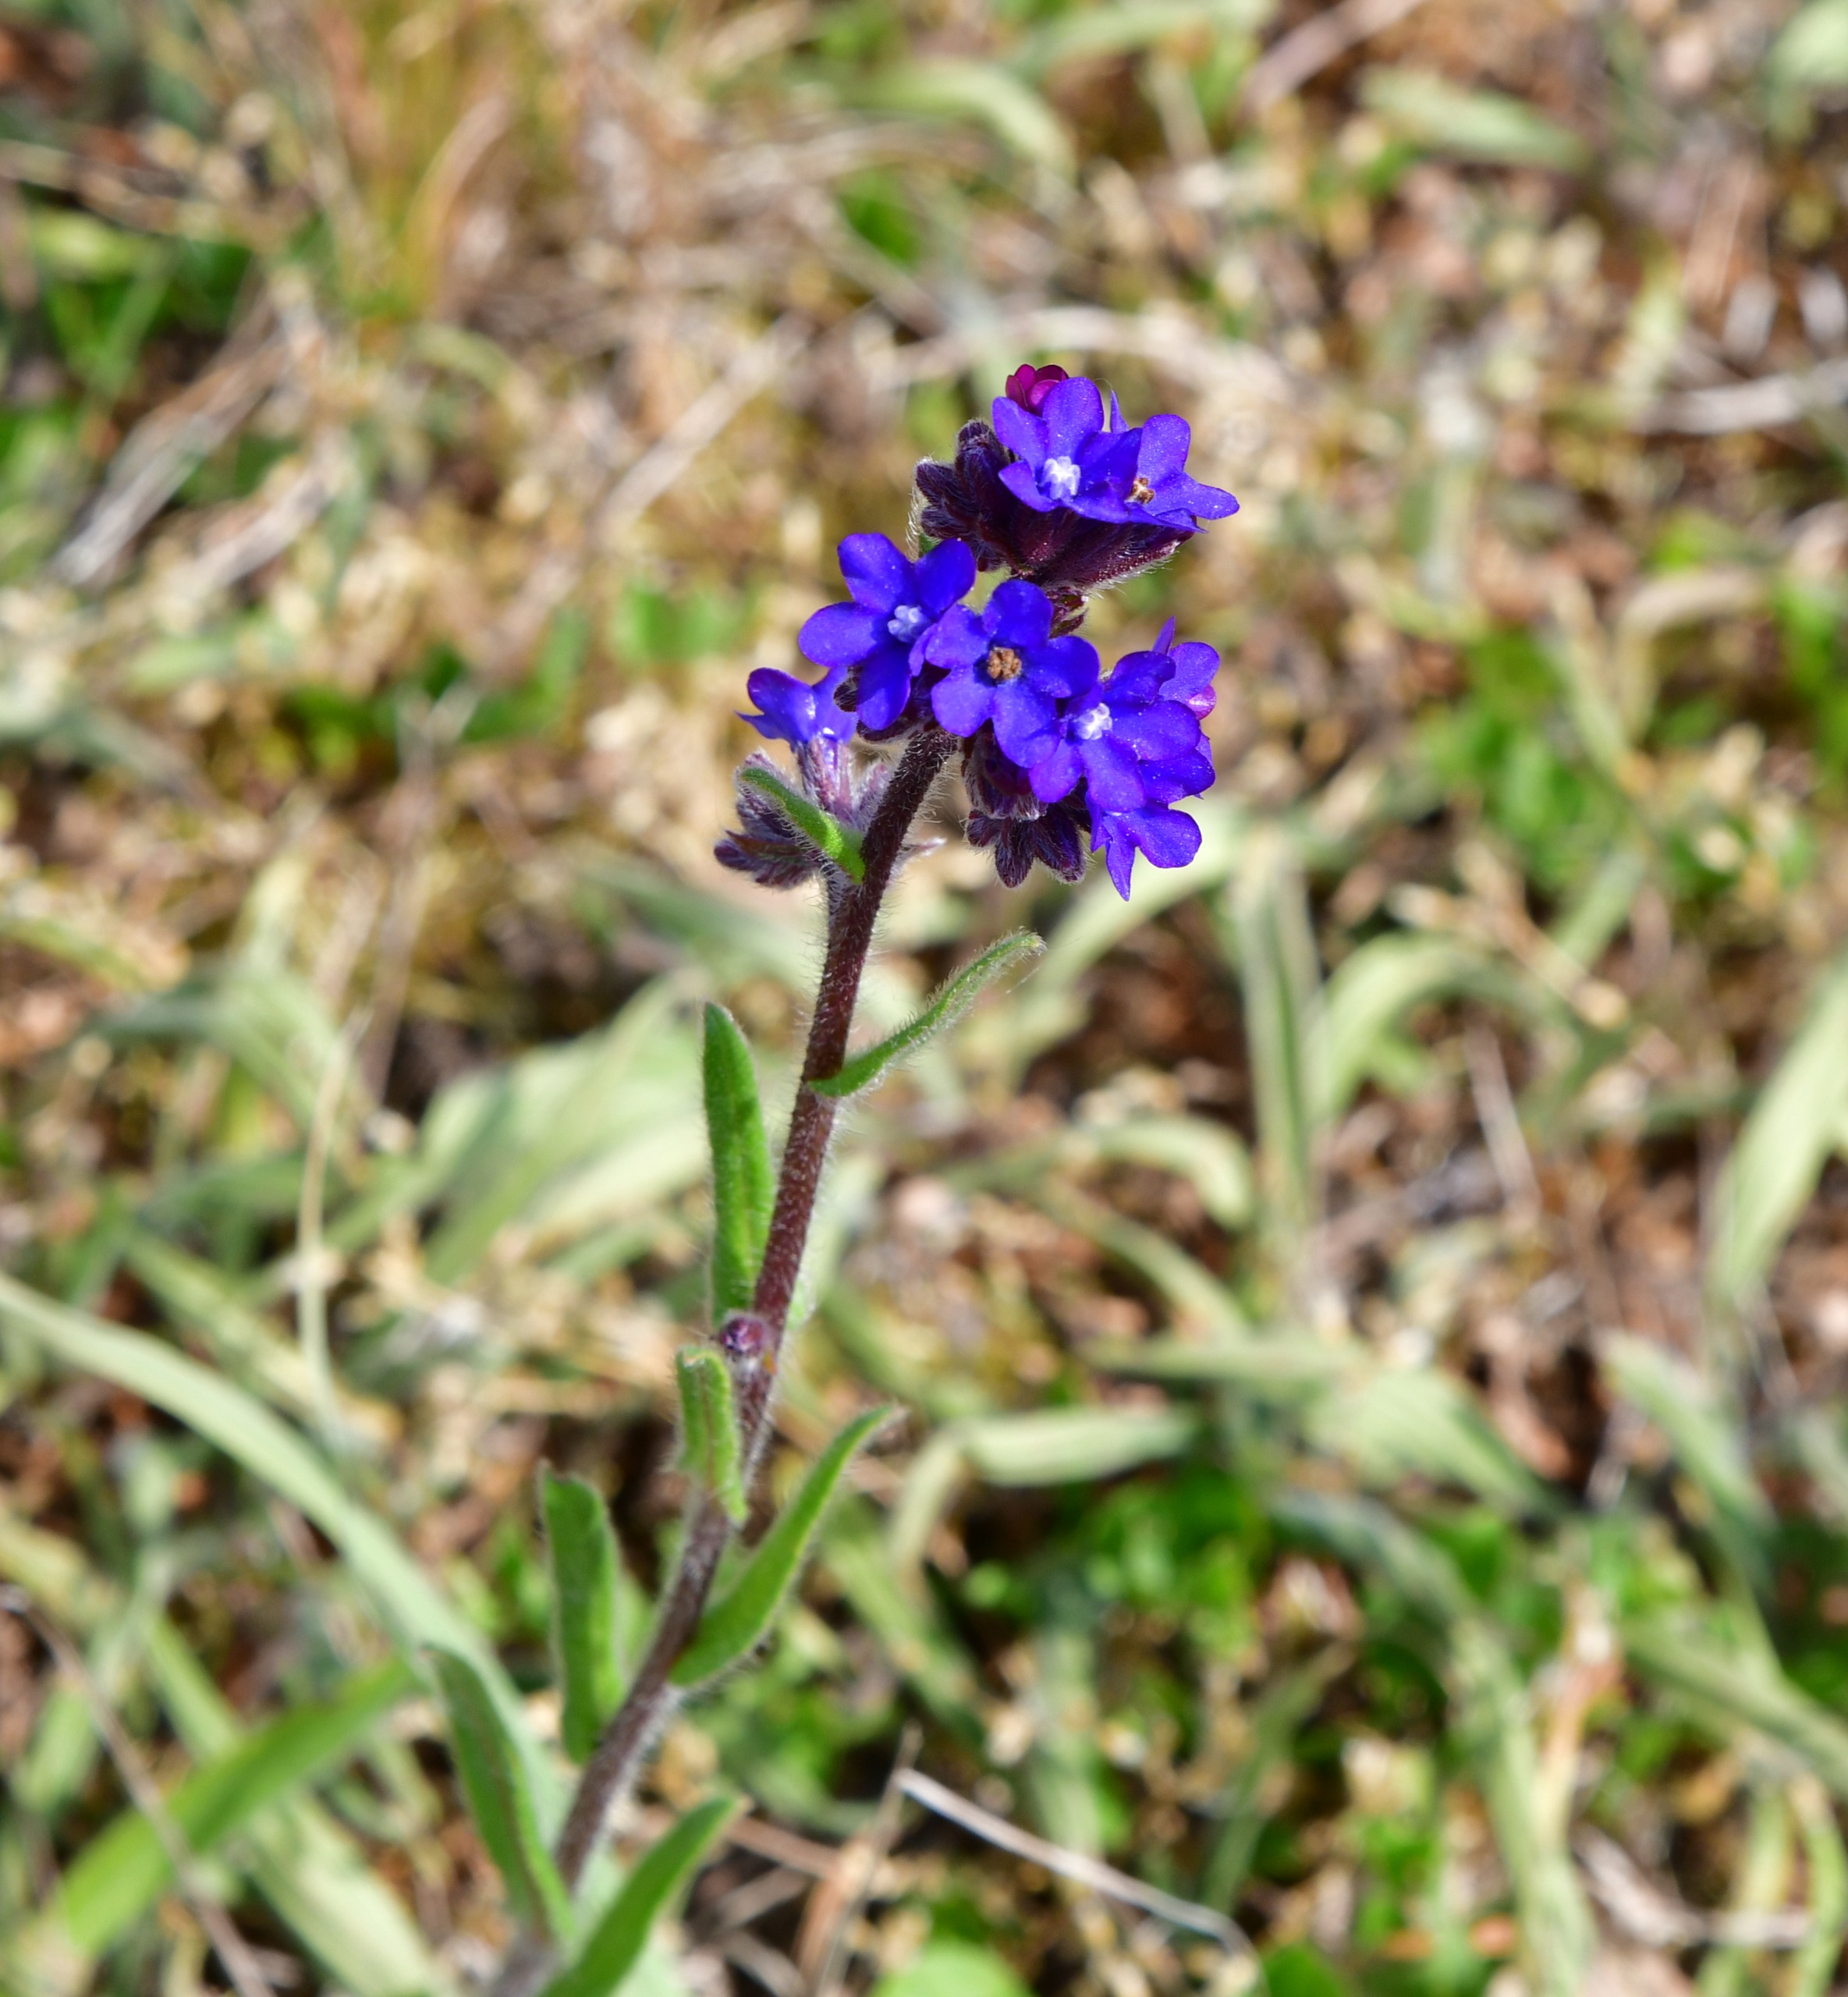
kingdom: Plantae
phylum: Tracheophyta
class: Magnoliopsida
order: Boraginales
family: Boraginaceae
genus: Anchusa
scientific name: Anchusa officinalis
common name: Læge-oksetunge
